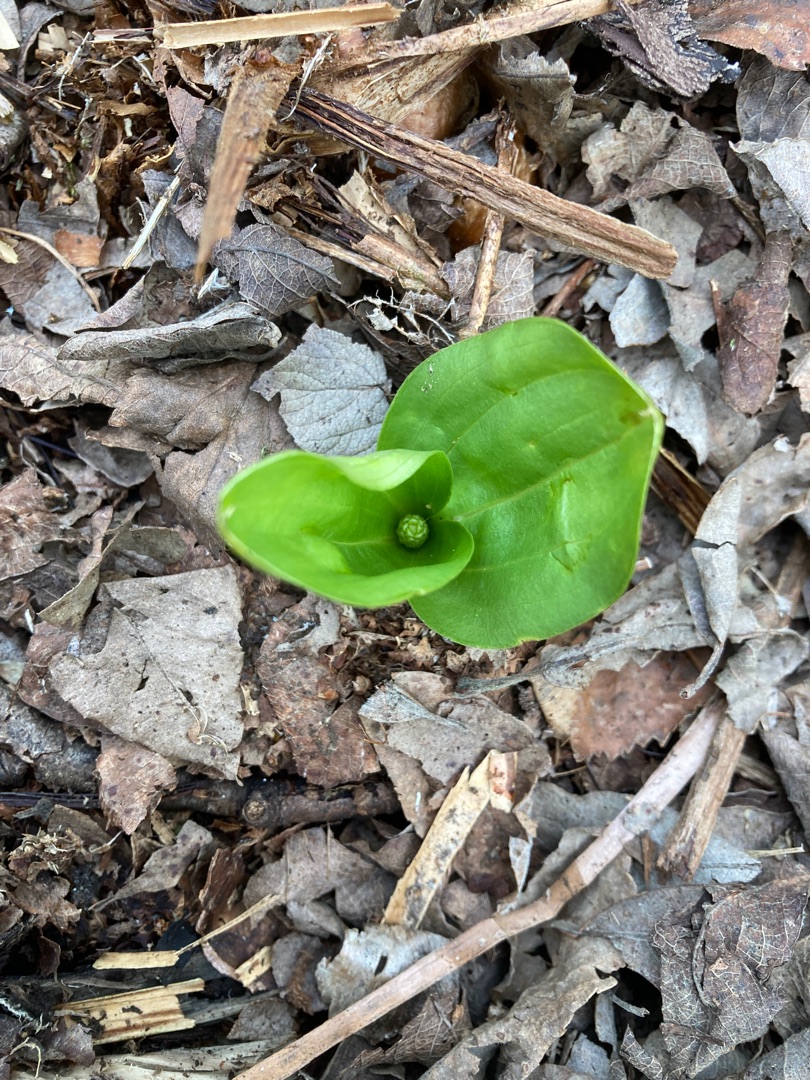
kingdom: Plantae
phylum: Tracheophyta
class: Liliopsida
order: Asparagales
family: Orchidaceae
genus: Neottia
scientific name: Neottia ovata
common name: Ægbladet fliglæbe
